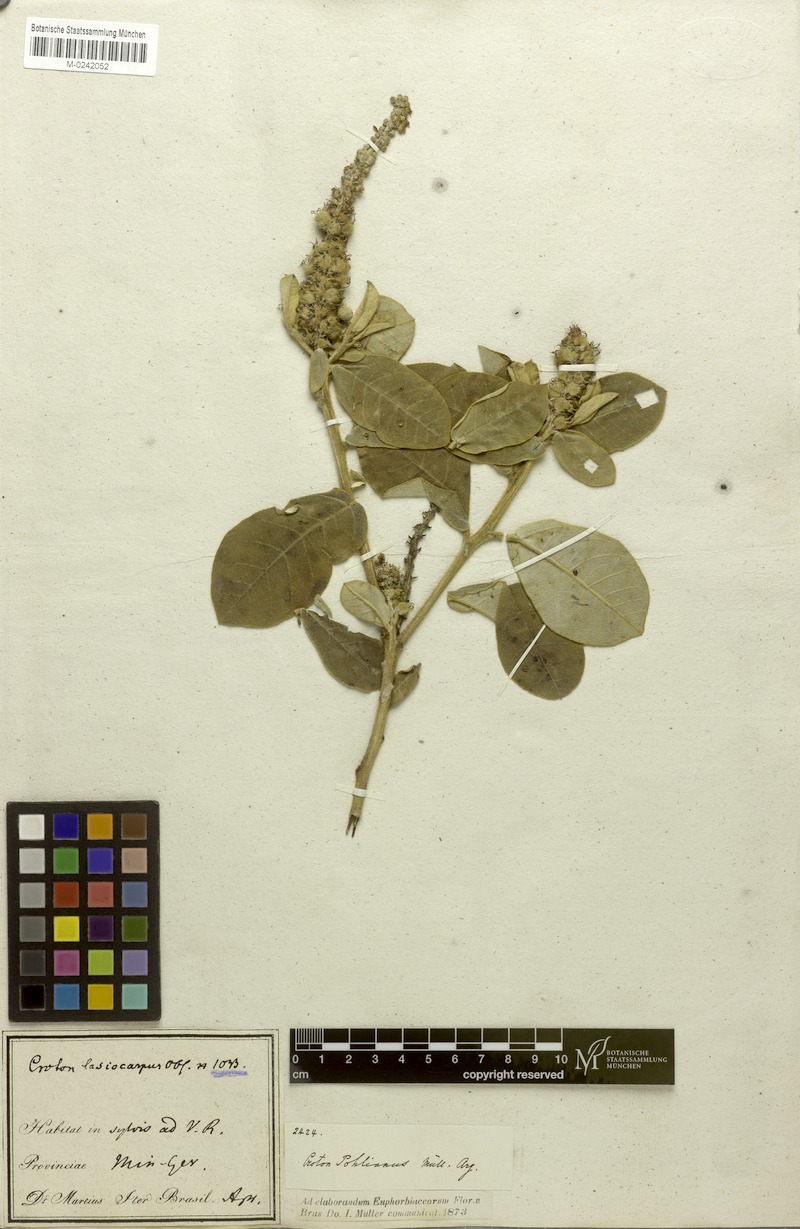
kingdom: Plantae
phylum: Tracheophyta
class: Magnoliopsida
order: Malpighiales
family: Euphorbiaceae
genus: Croton
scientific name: Croton grandivelum
